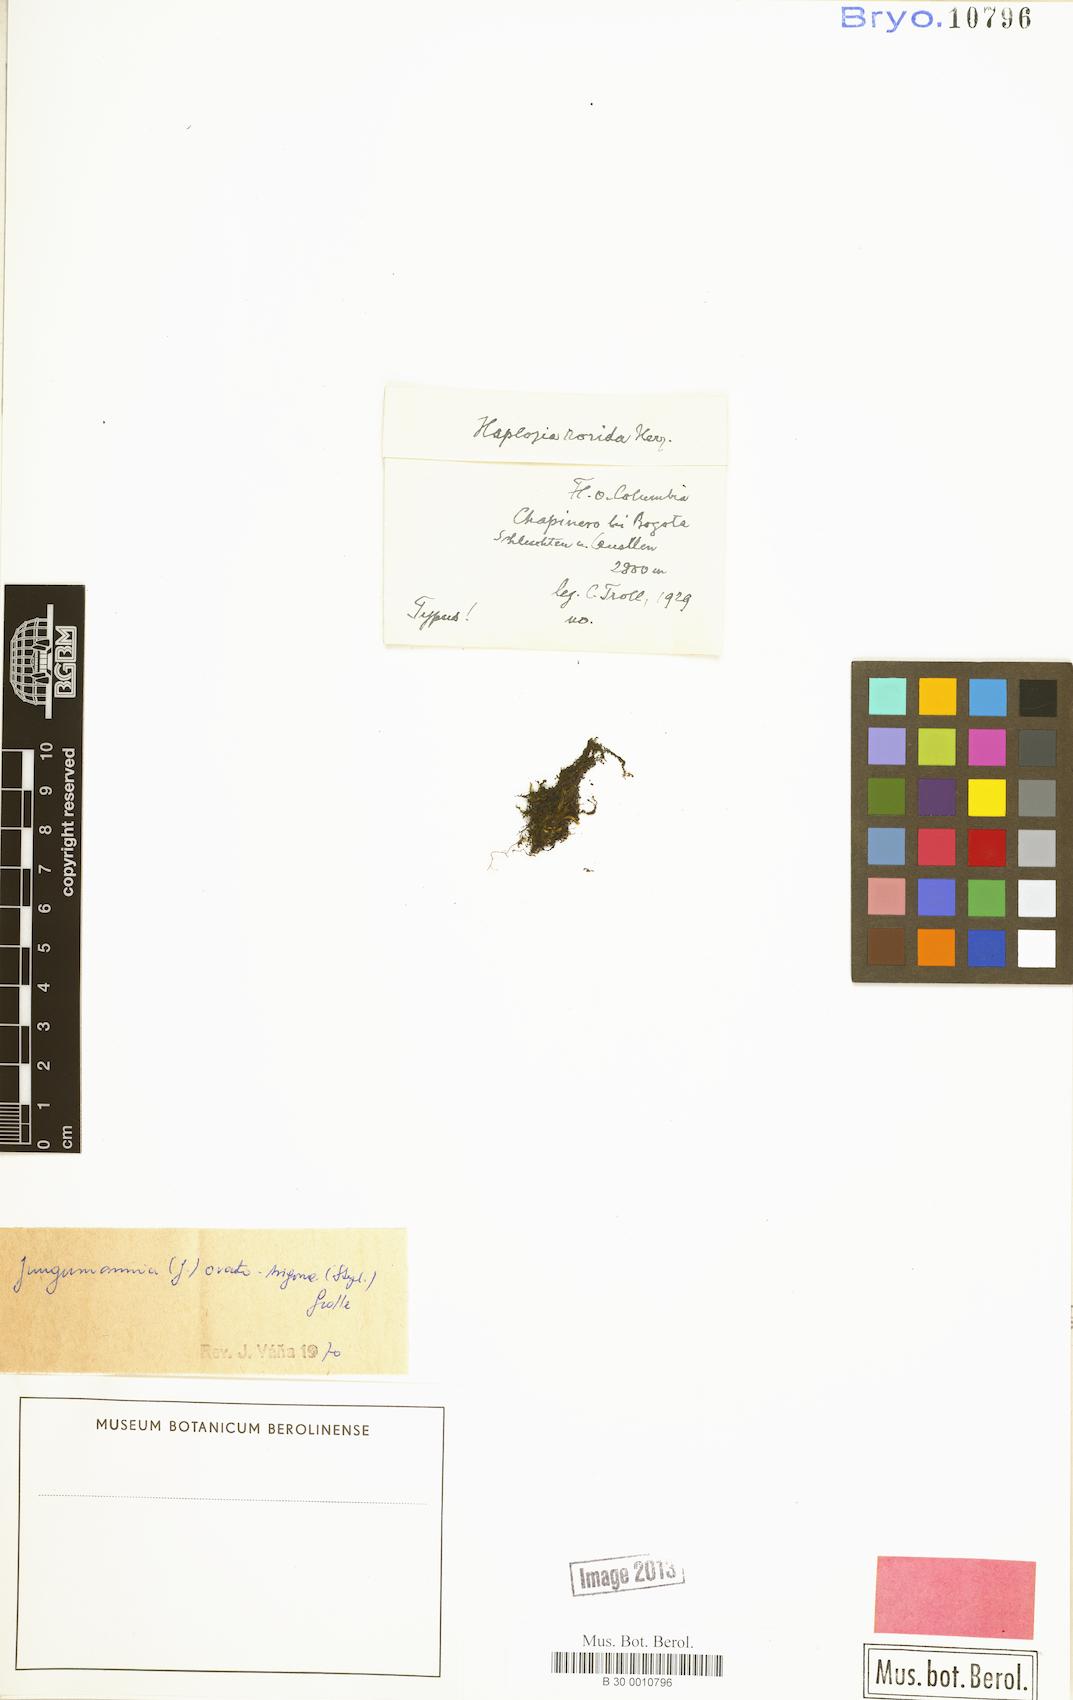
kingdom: Plantae
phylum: Marchantiophyta
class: Jungermanniopsida
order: Jungermanniales
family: Jungermanniaceae
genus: Jungermannia
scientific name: Jungermannia ovatotrigona
